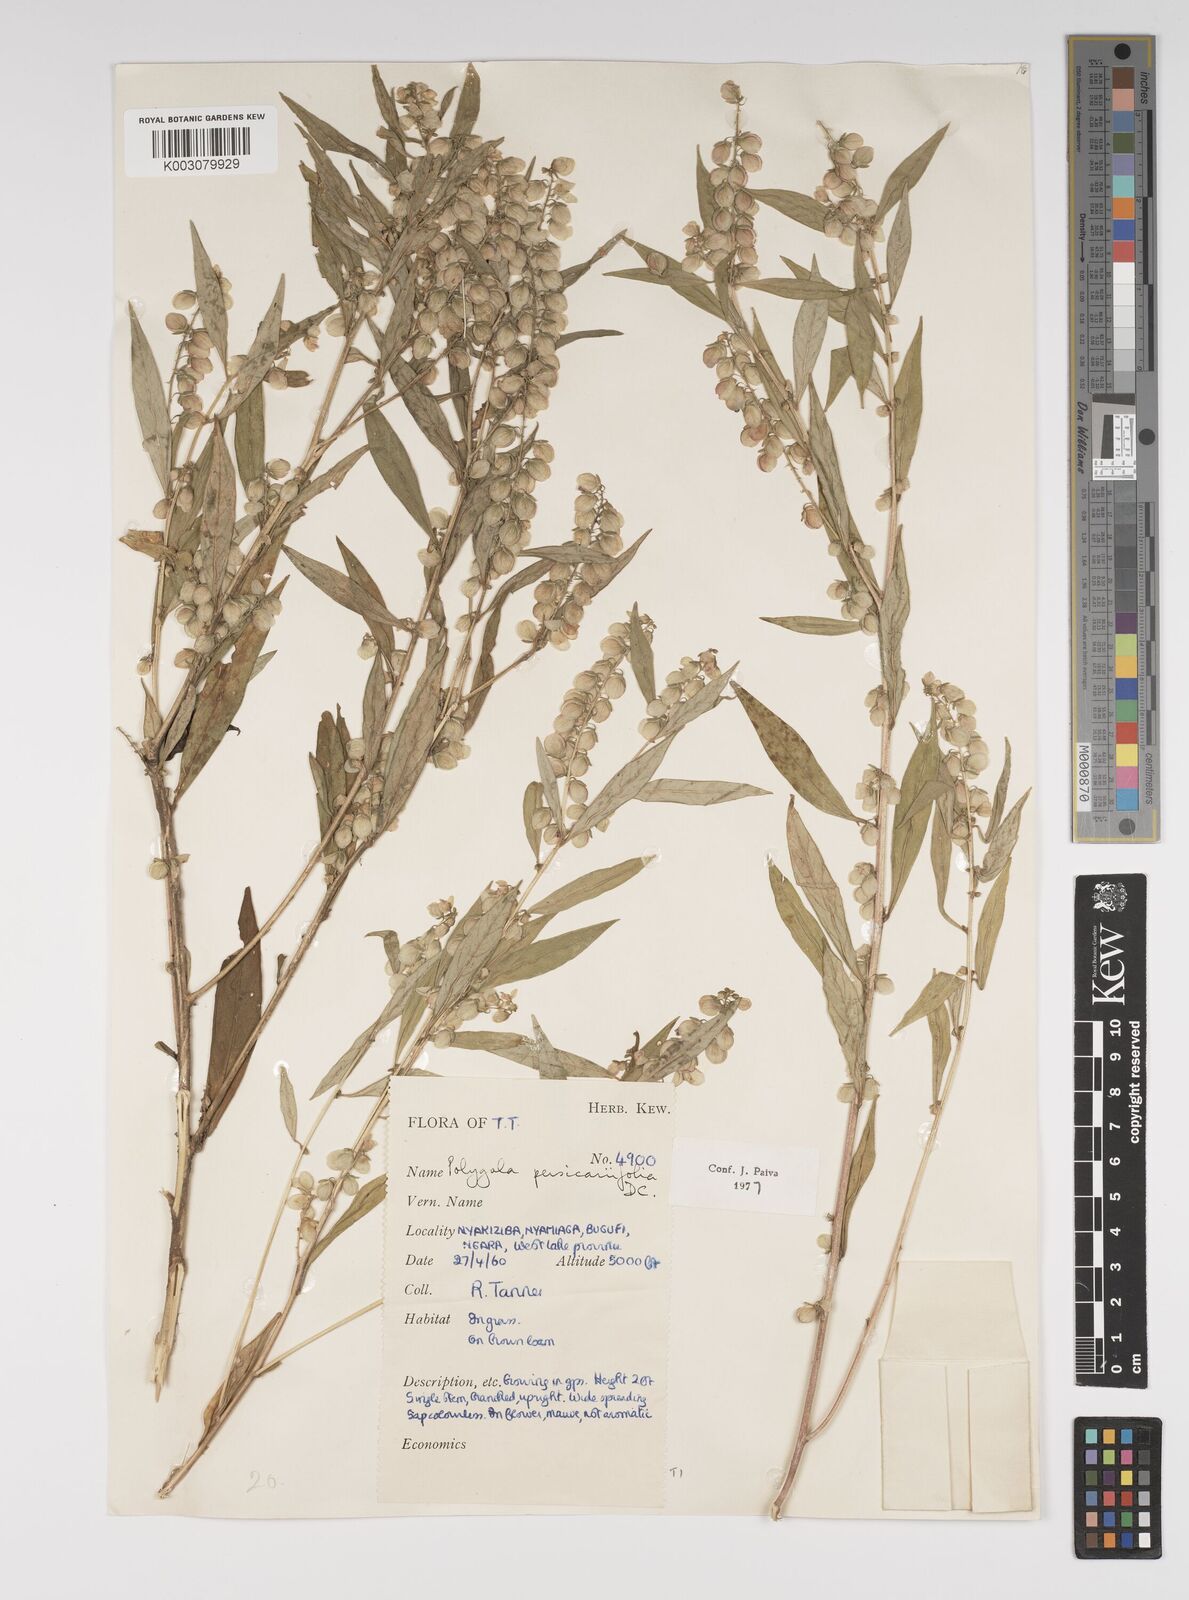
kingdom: Plantae
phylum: Tracheophyta
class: Magnoliopsida
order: Fabales
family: Polygalaceae
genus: Polygala
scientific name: Polygala persicariifolia
